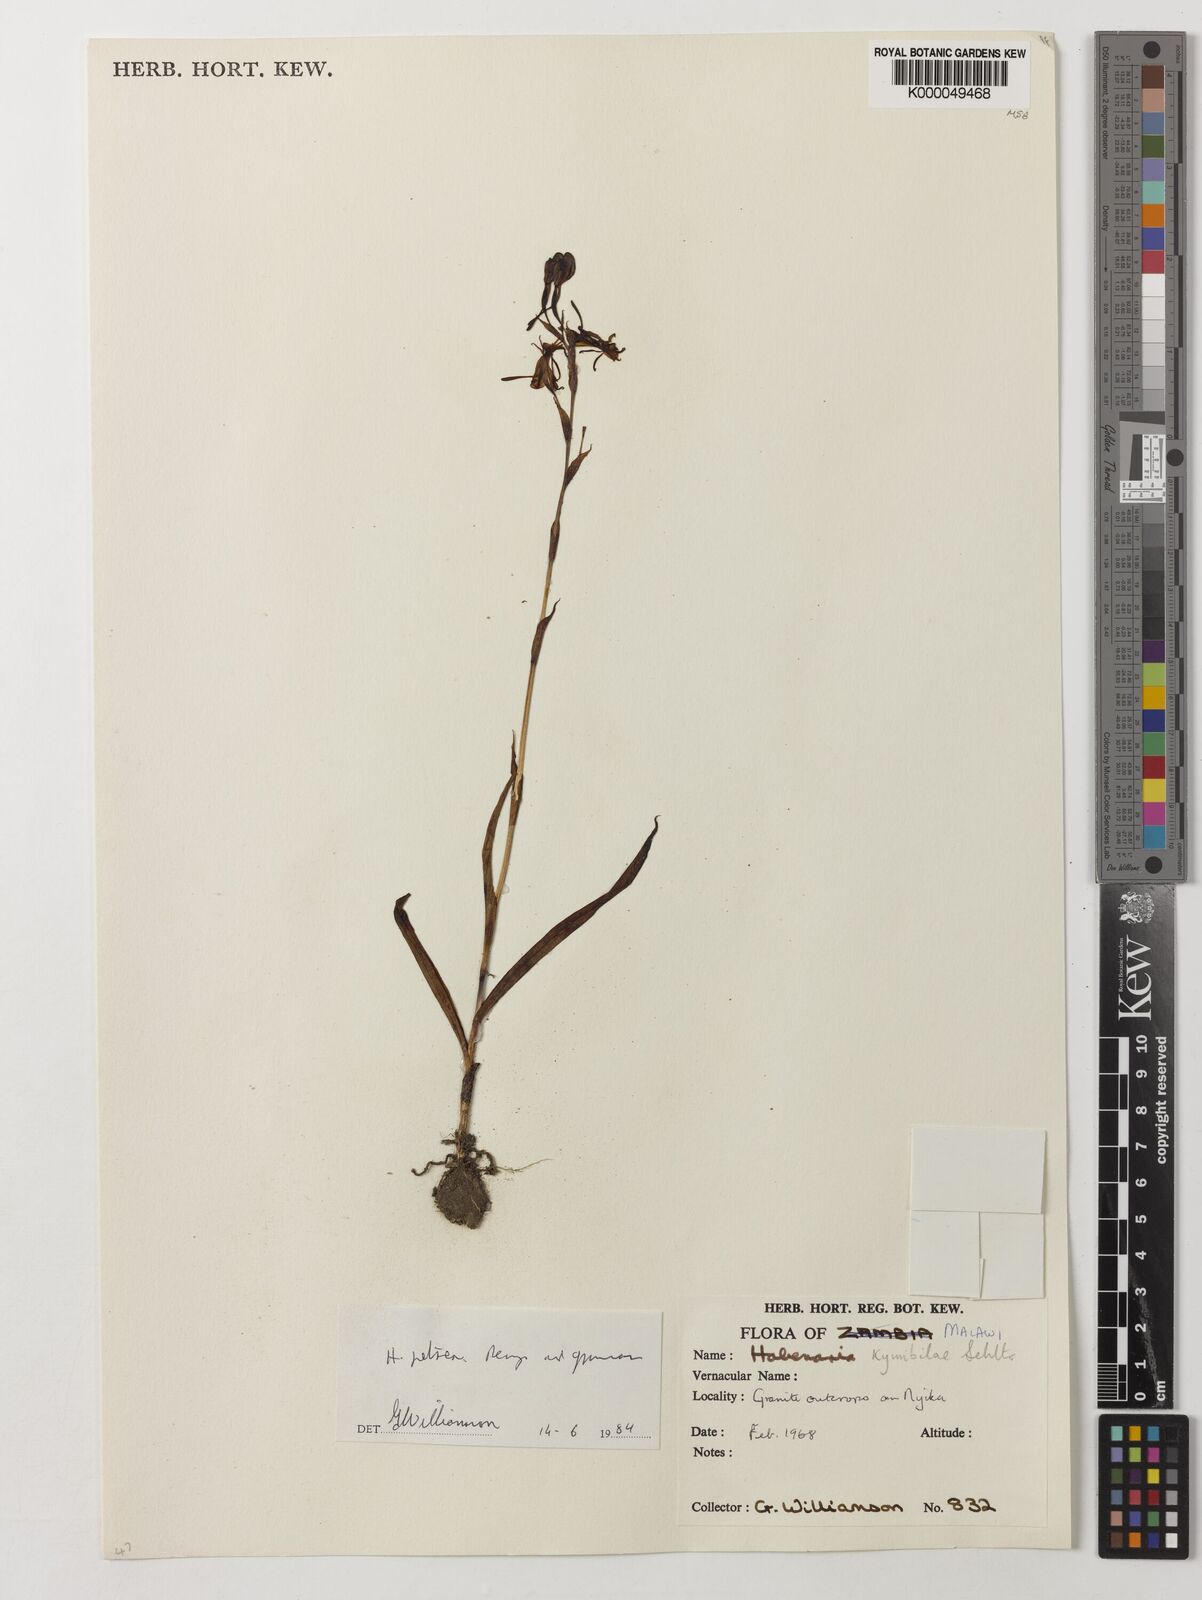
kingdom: Plantae
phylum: Tracheophyta
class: Liliopsida
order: Asparagales
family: Orchidaceae
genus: Habenaria
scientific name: Habenaria petraea
